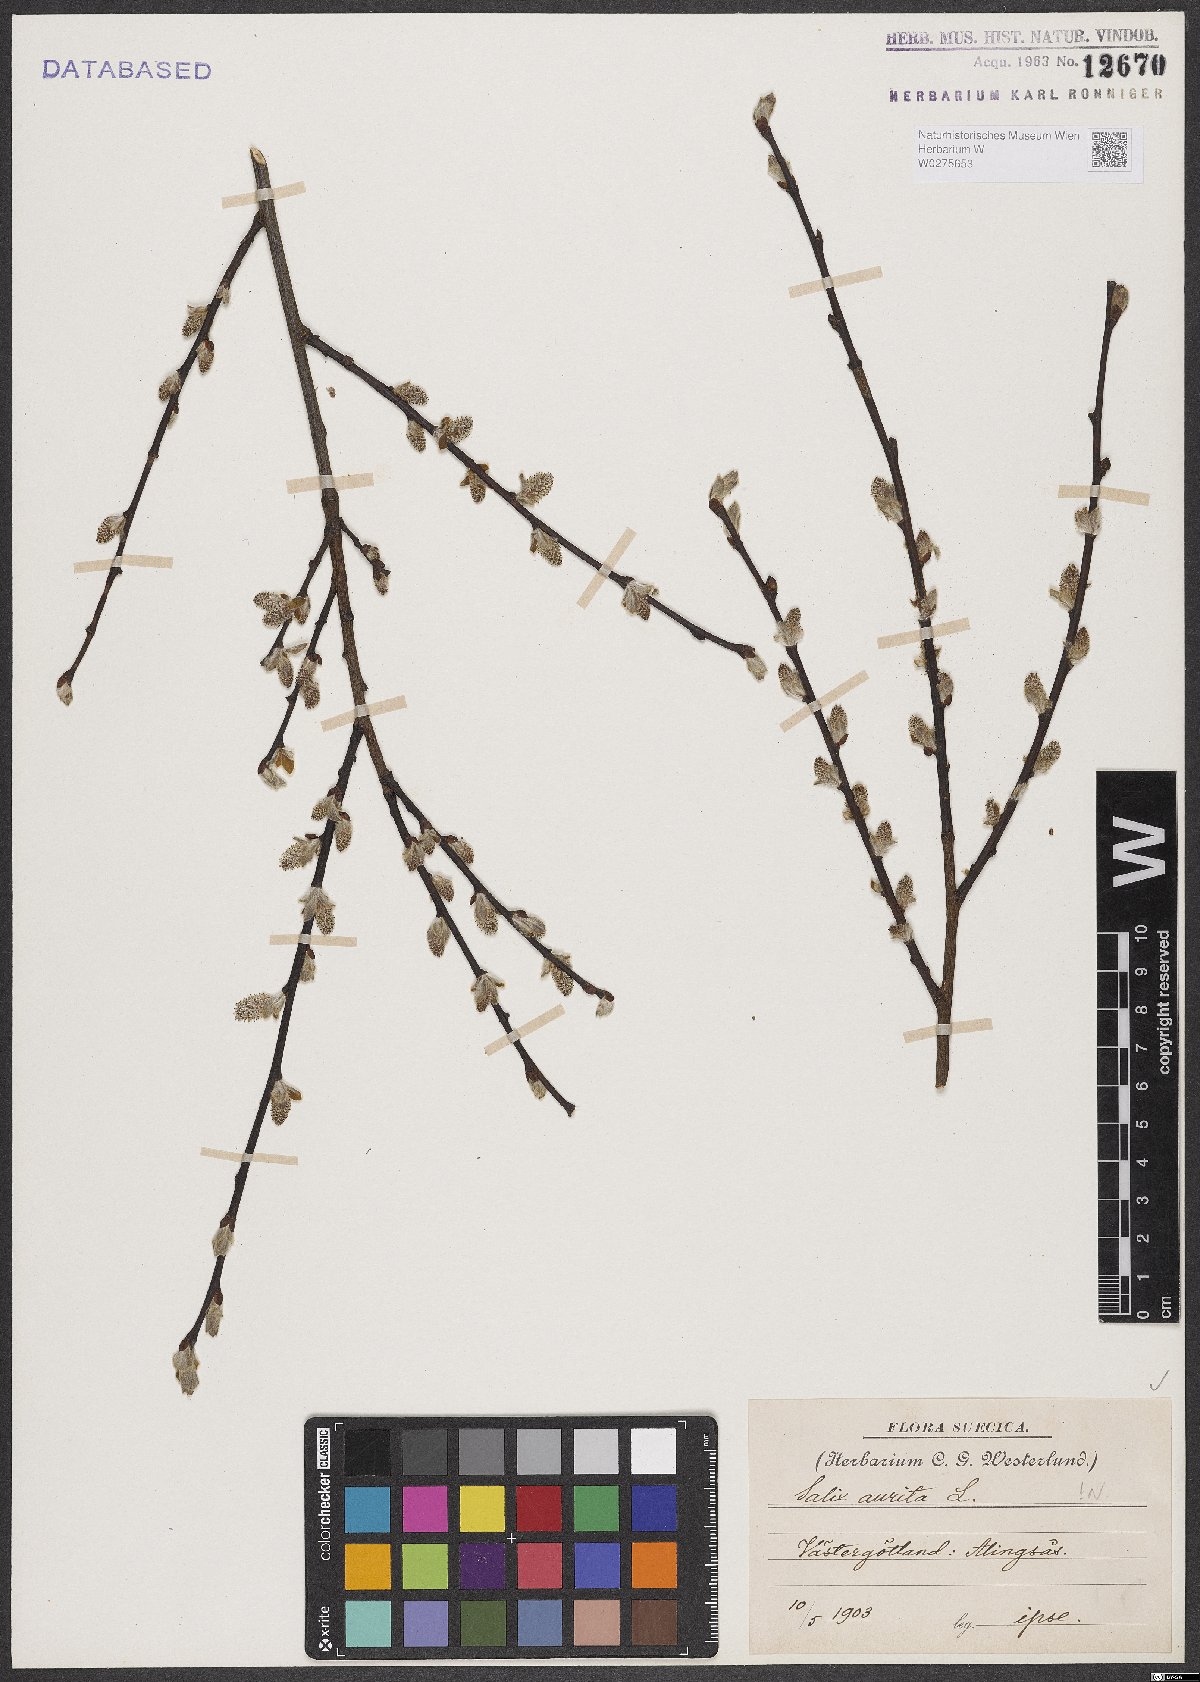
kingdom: Plantae
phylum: Tracheophyta
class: Magnoliopsida
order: Malpighiales
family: Salicaceae
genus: Salix
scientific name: Salix aurita
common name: Eared willow
